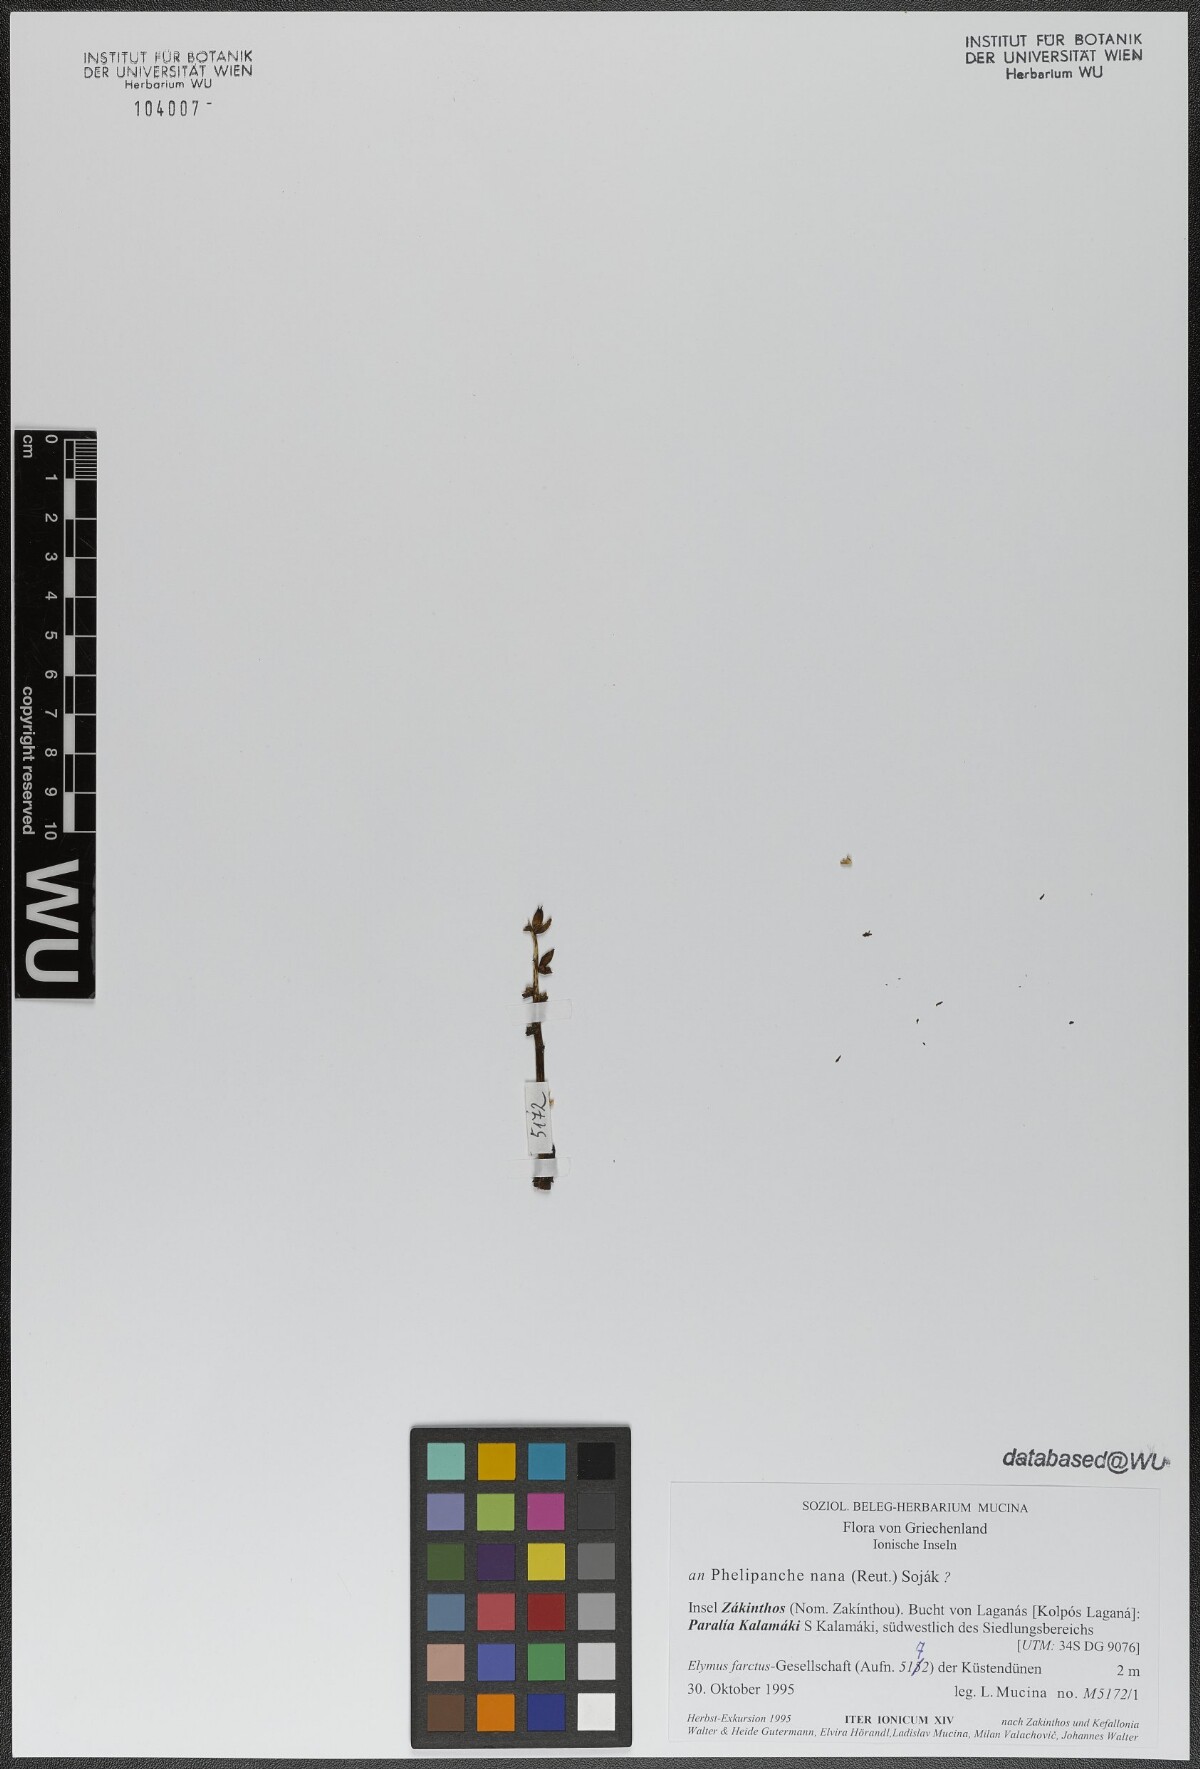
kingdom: Plantae
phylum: Tracheophyta
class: Magnoliopsida
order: Lamiales
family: Orobanchaceae
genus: Phelipanche
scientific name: Phelipanche
